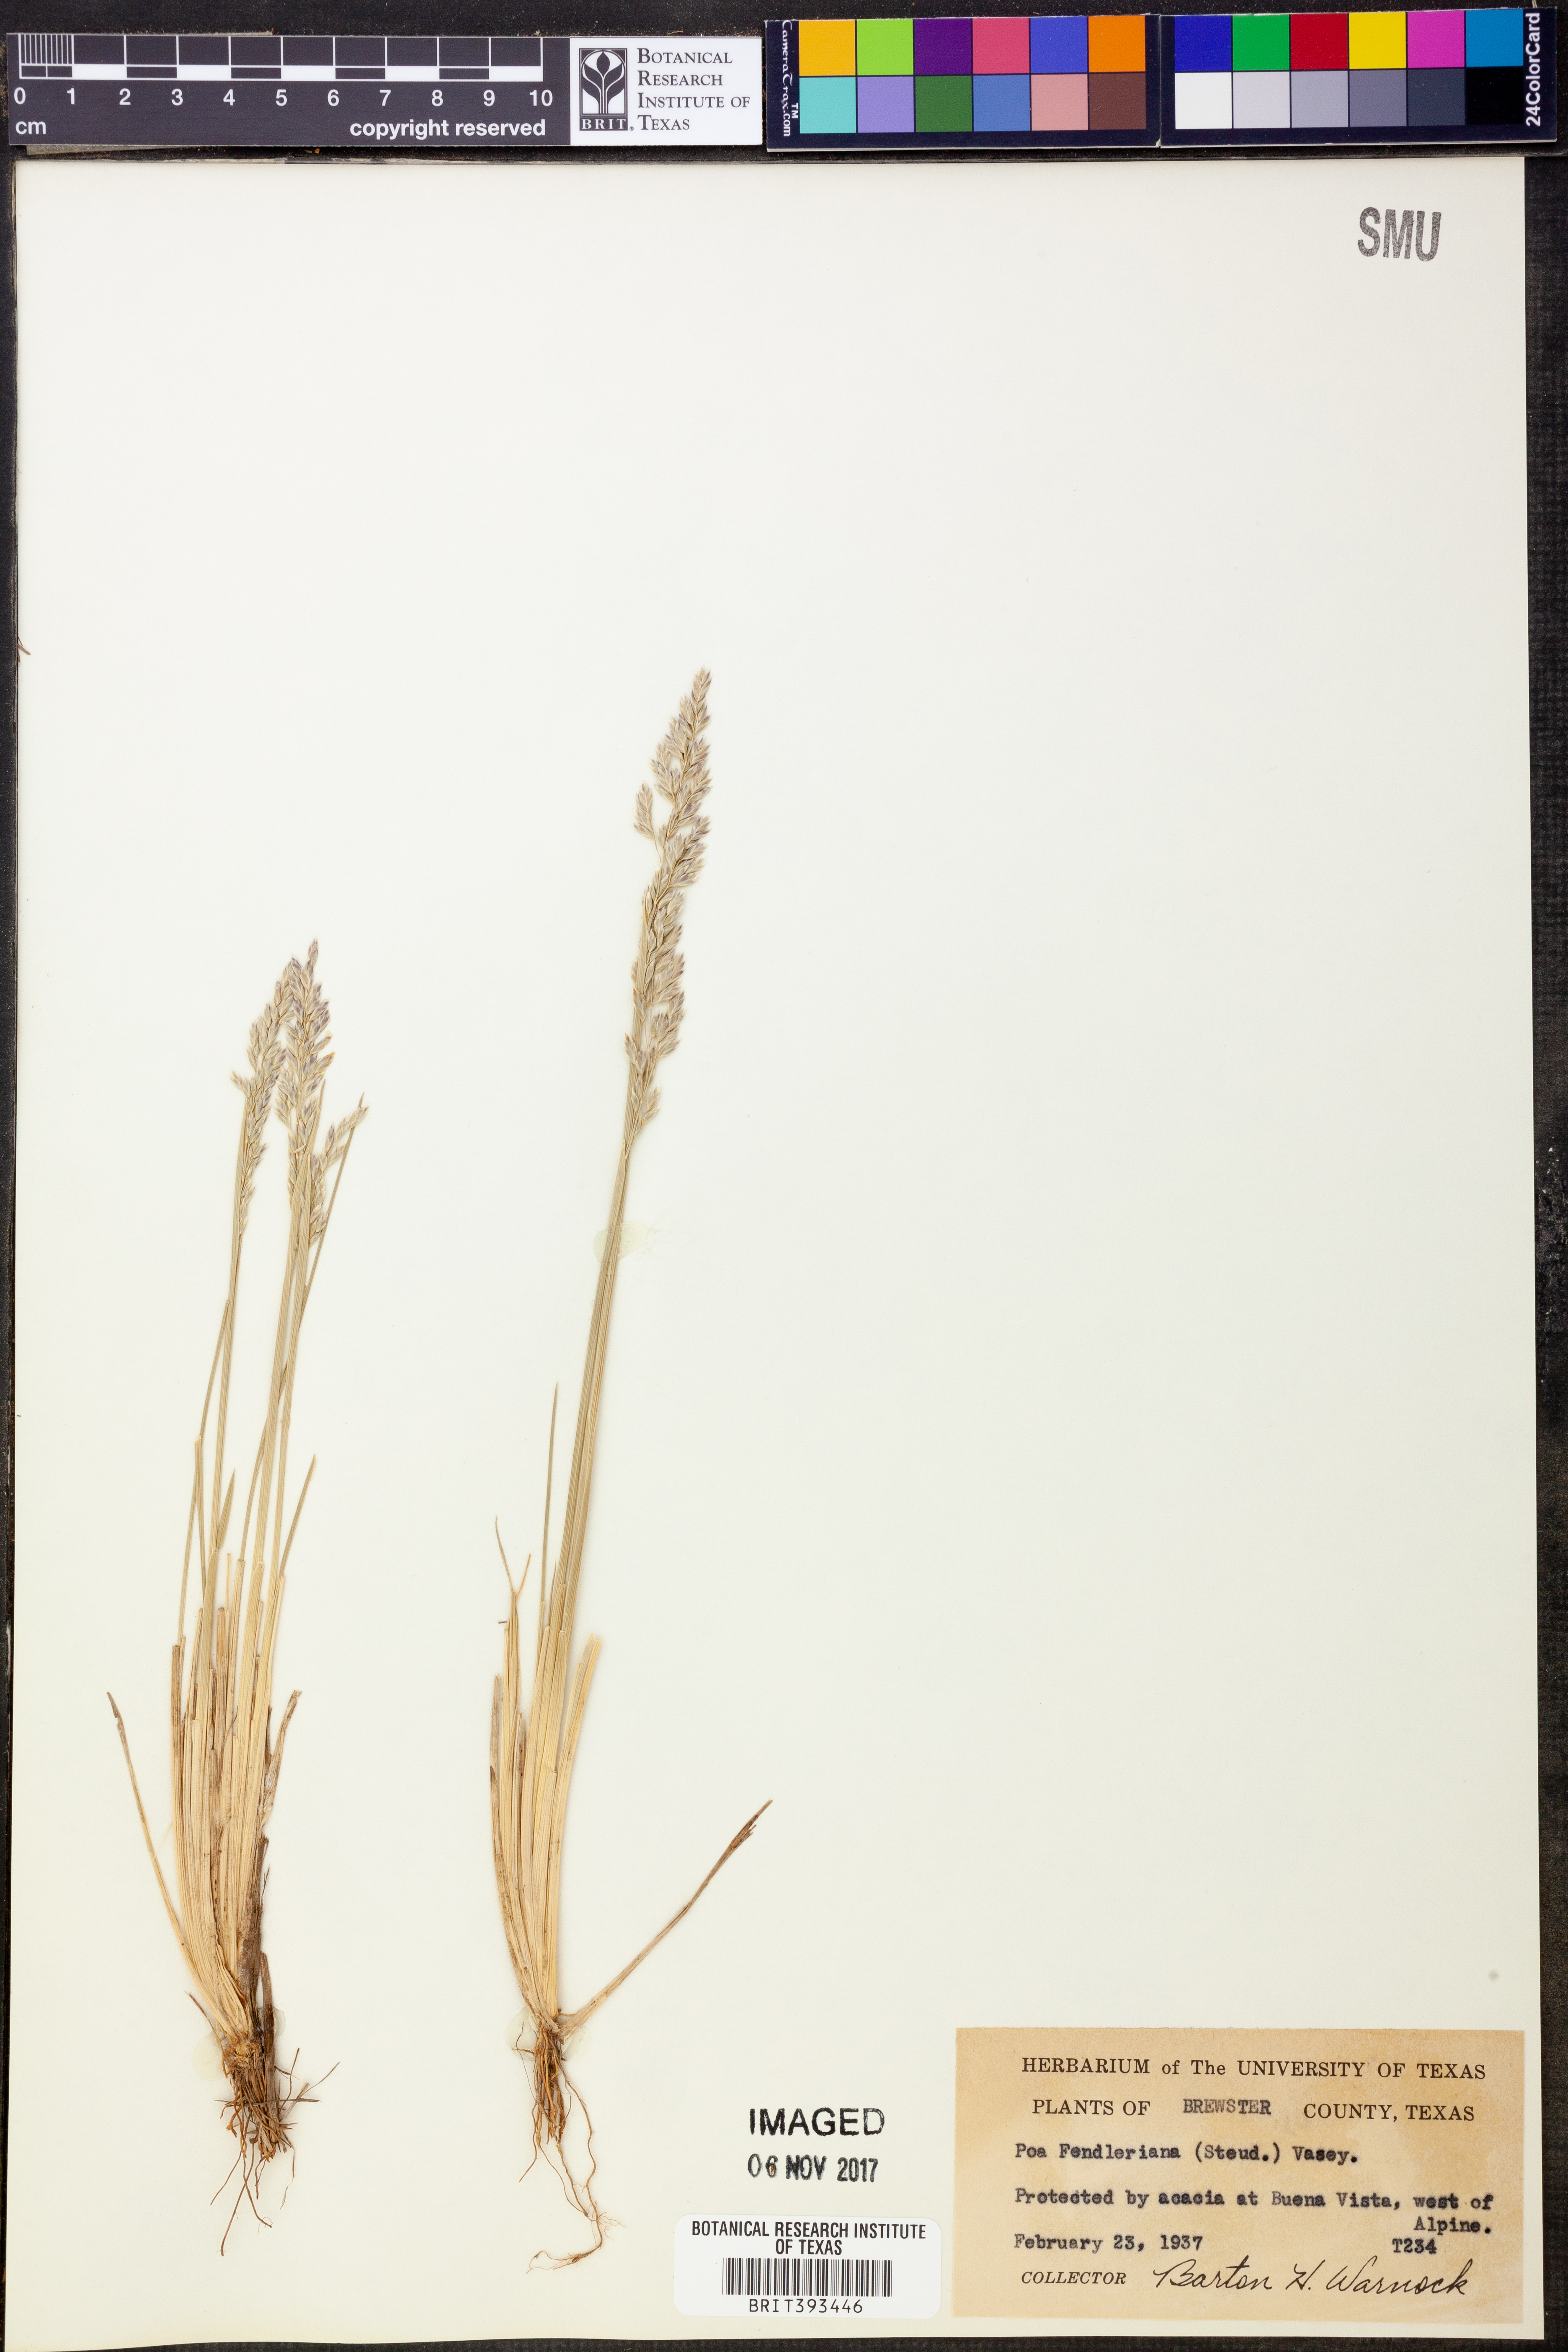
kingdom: Plantae
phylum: Tracheophyta
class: Liliopsida
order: Poales
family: Poaceae
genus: Poa
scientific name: Poa fendleriana
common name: Mutton bluegrass
